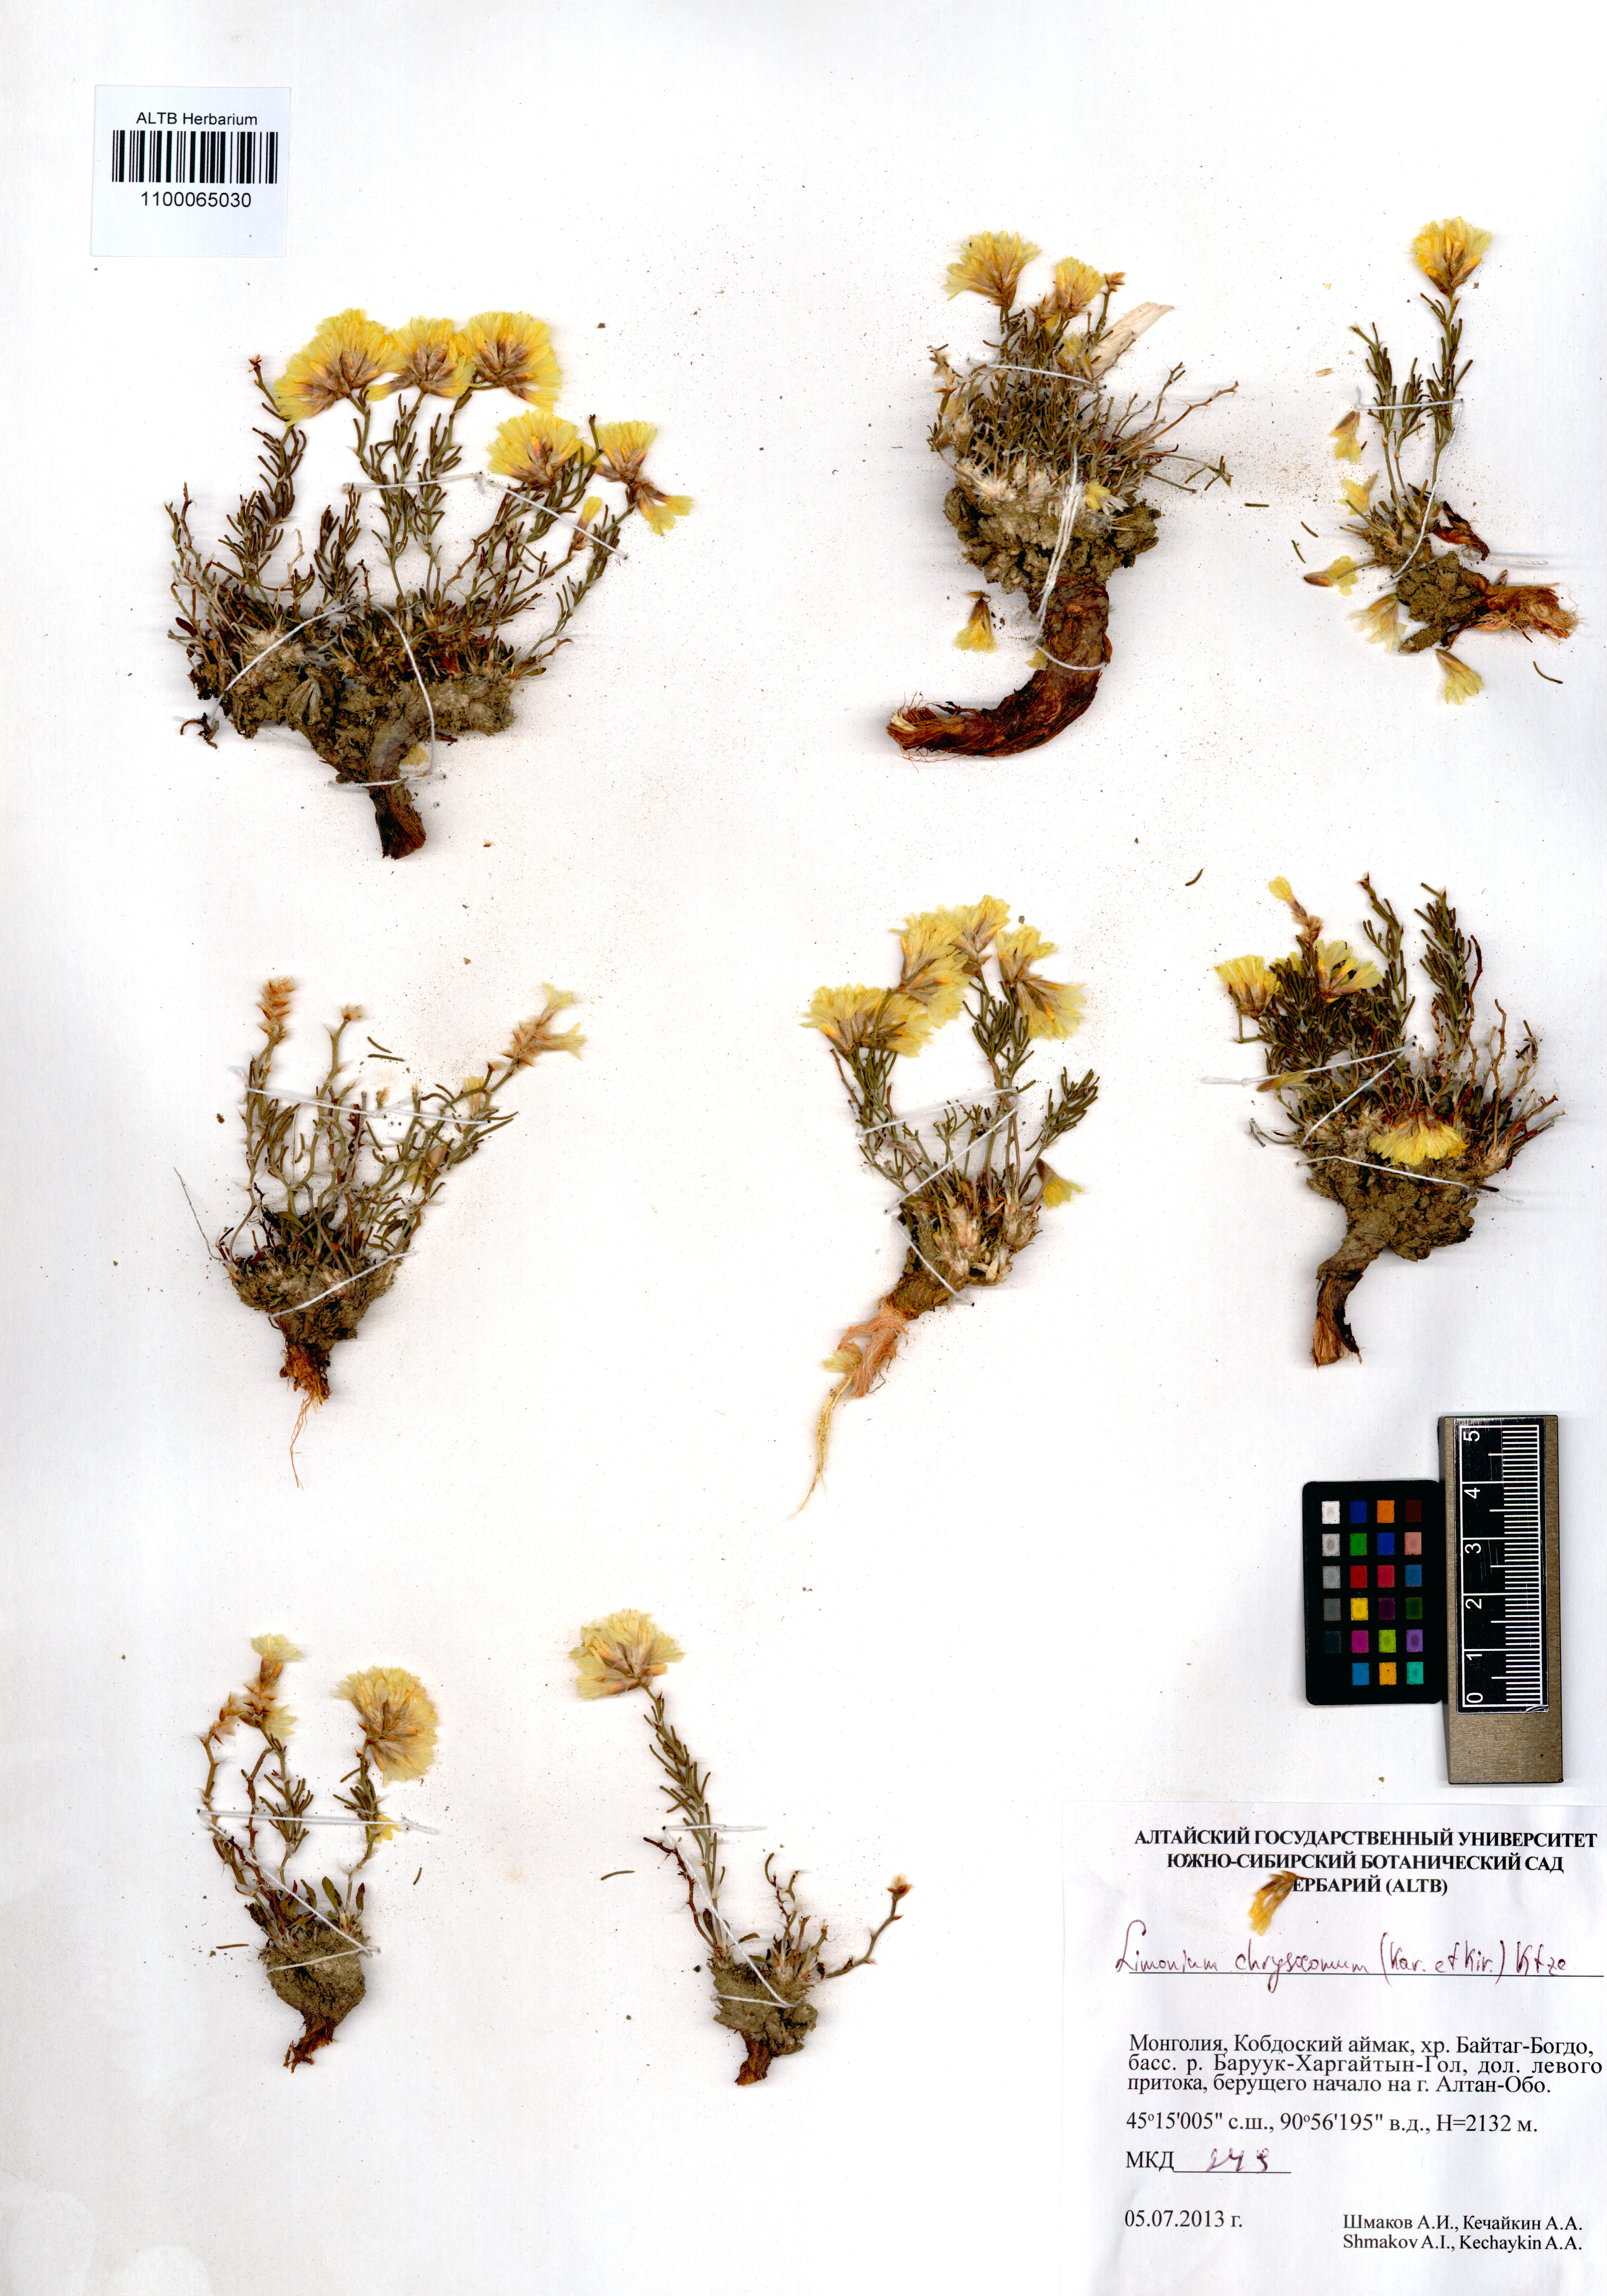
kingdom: Plantae
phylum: Tracheophyta
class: Magnoliopsida
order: Caryophyllales
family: Plumbaginaceae
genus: Limonium
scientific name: Limonium chrysocomum
